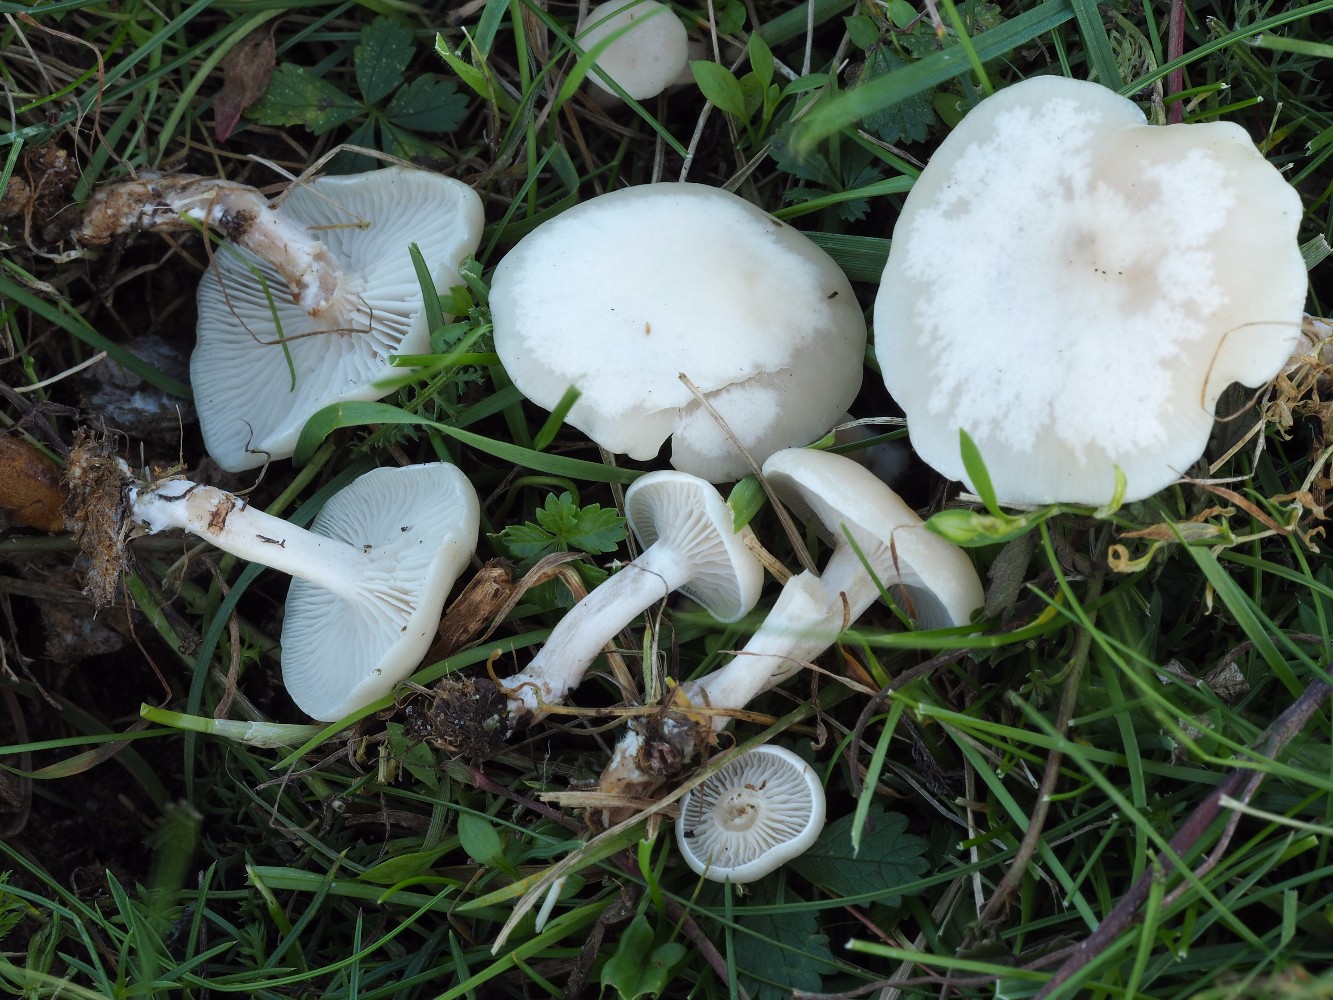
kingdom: Fungi
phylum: Basidiomycota
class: Agaricomycetes
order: Agaricales
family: Tricholomataceae
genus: Clitocybe
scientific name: Clitocybe
